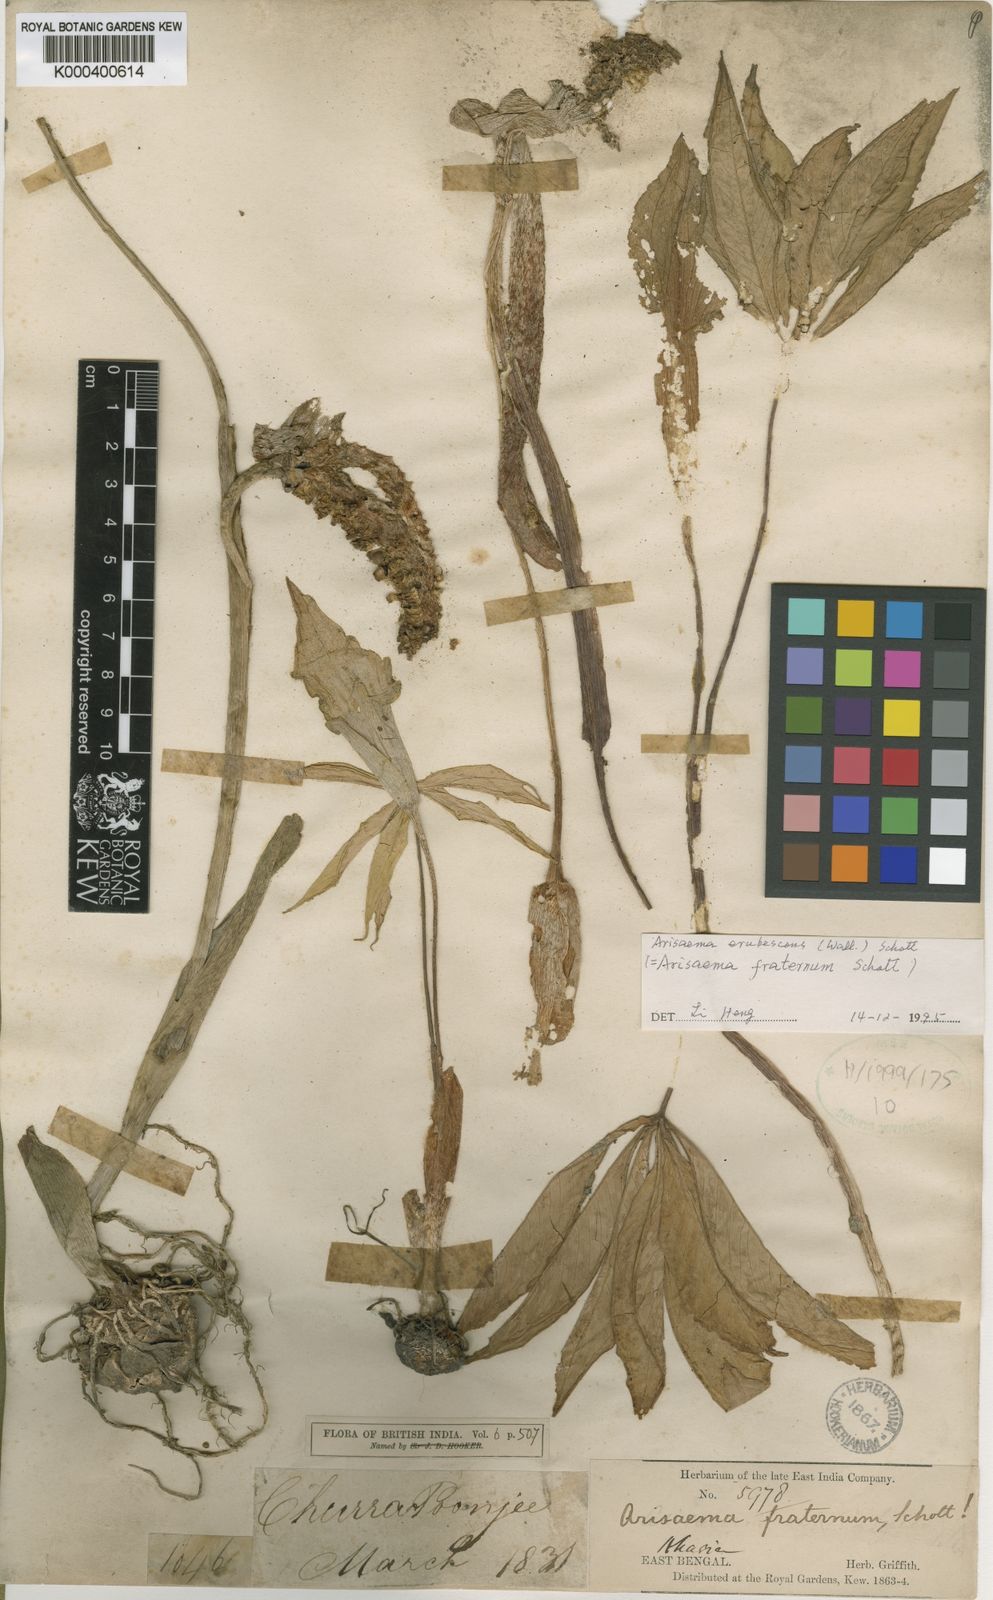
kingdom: Plantae
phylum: Tracheophyta
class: Liliopsida
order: Alismatales
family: Araceae
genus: Arisaema
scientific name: Arisaema erubescens
